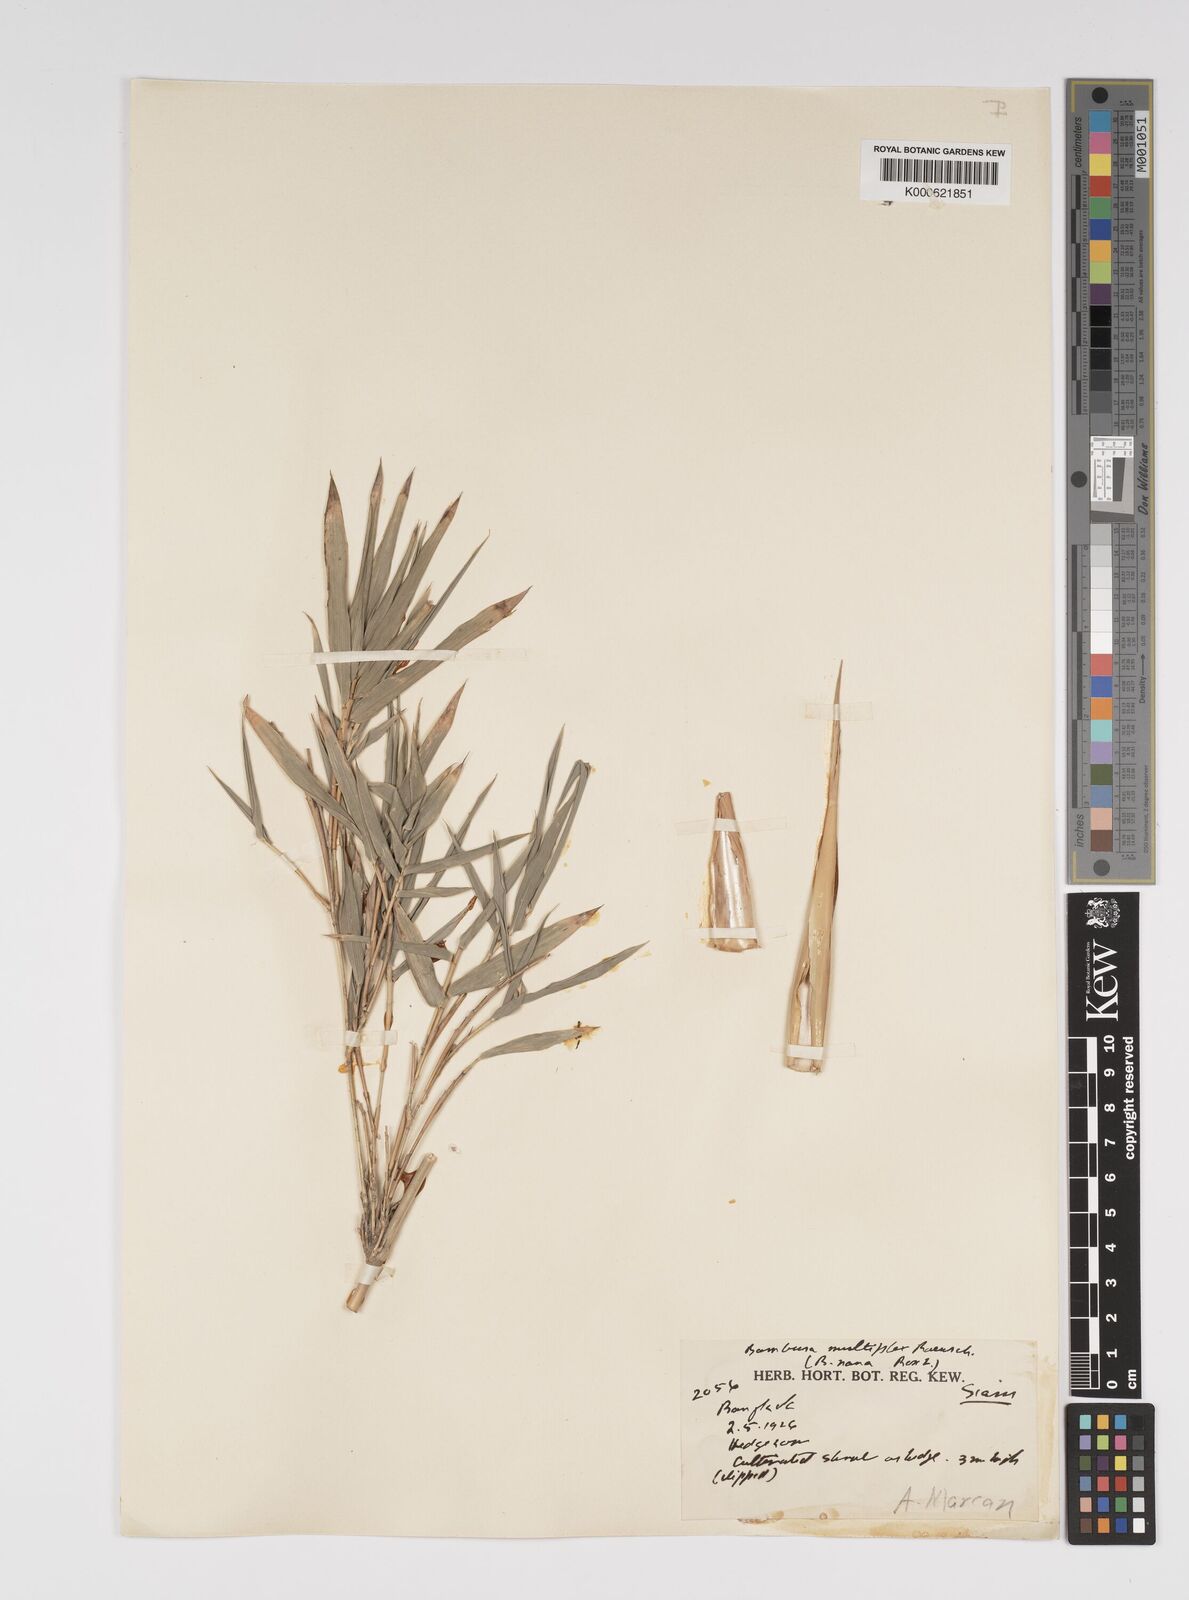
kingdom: Plantae
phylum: Tracheophyta
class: Liliopsida
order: Poales
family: Poaceae
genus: Bambusa
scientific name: Bambusa multiplex
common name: Hedge bamboo
